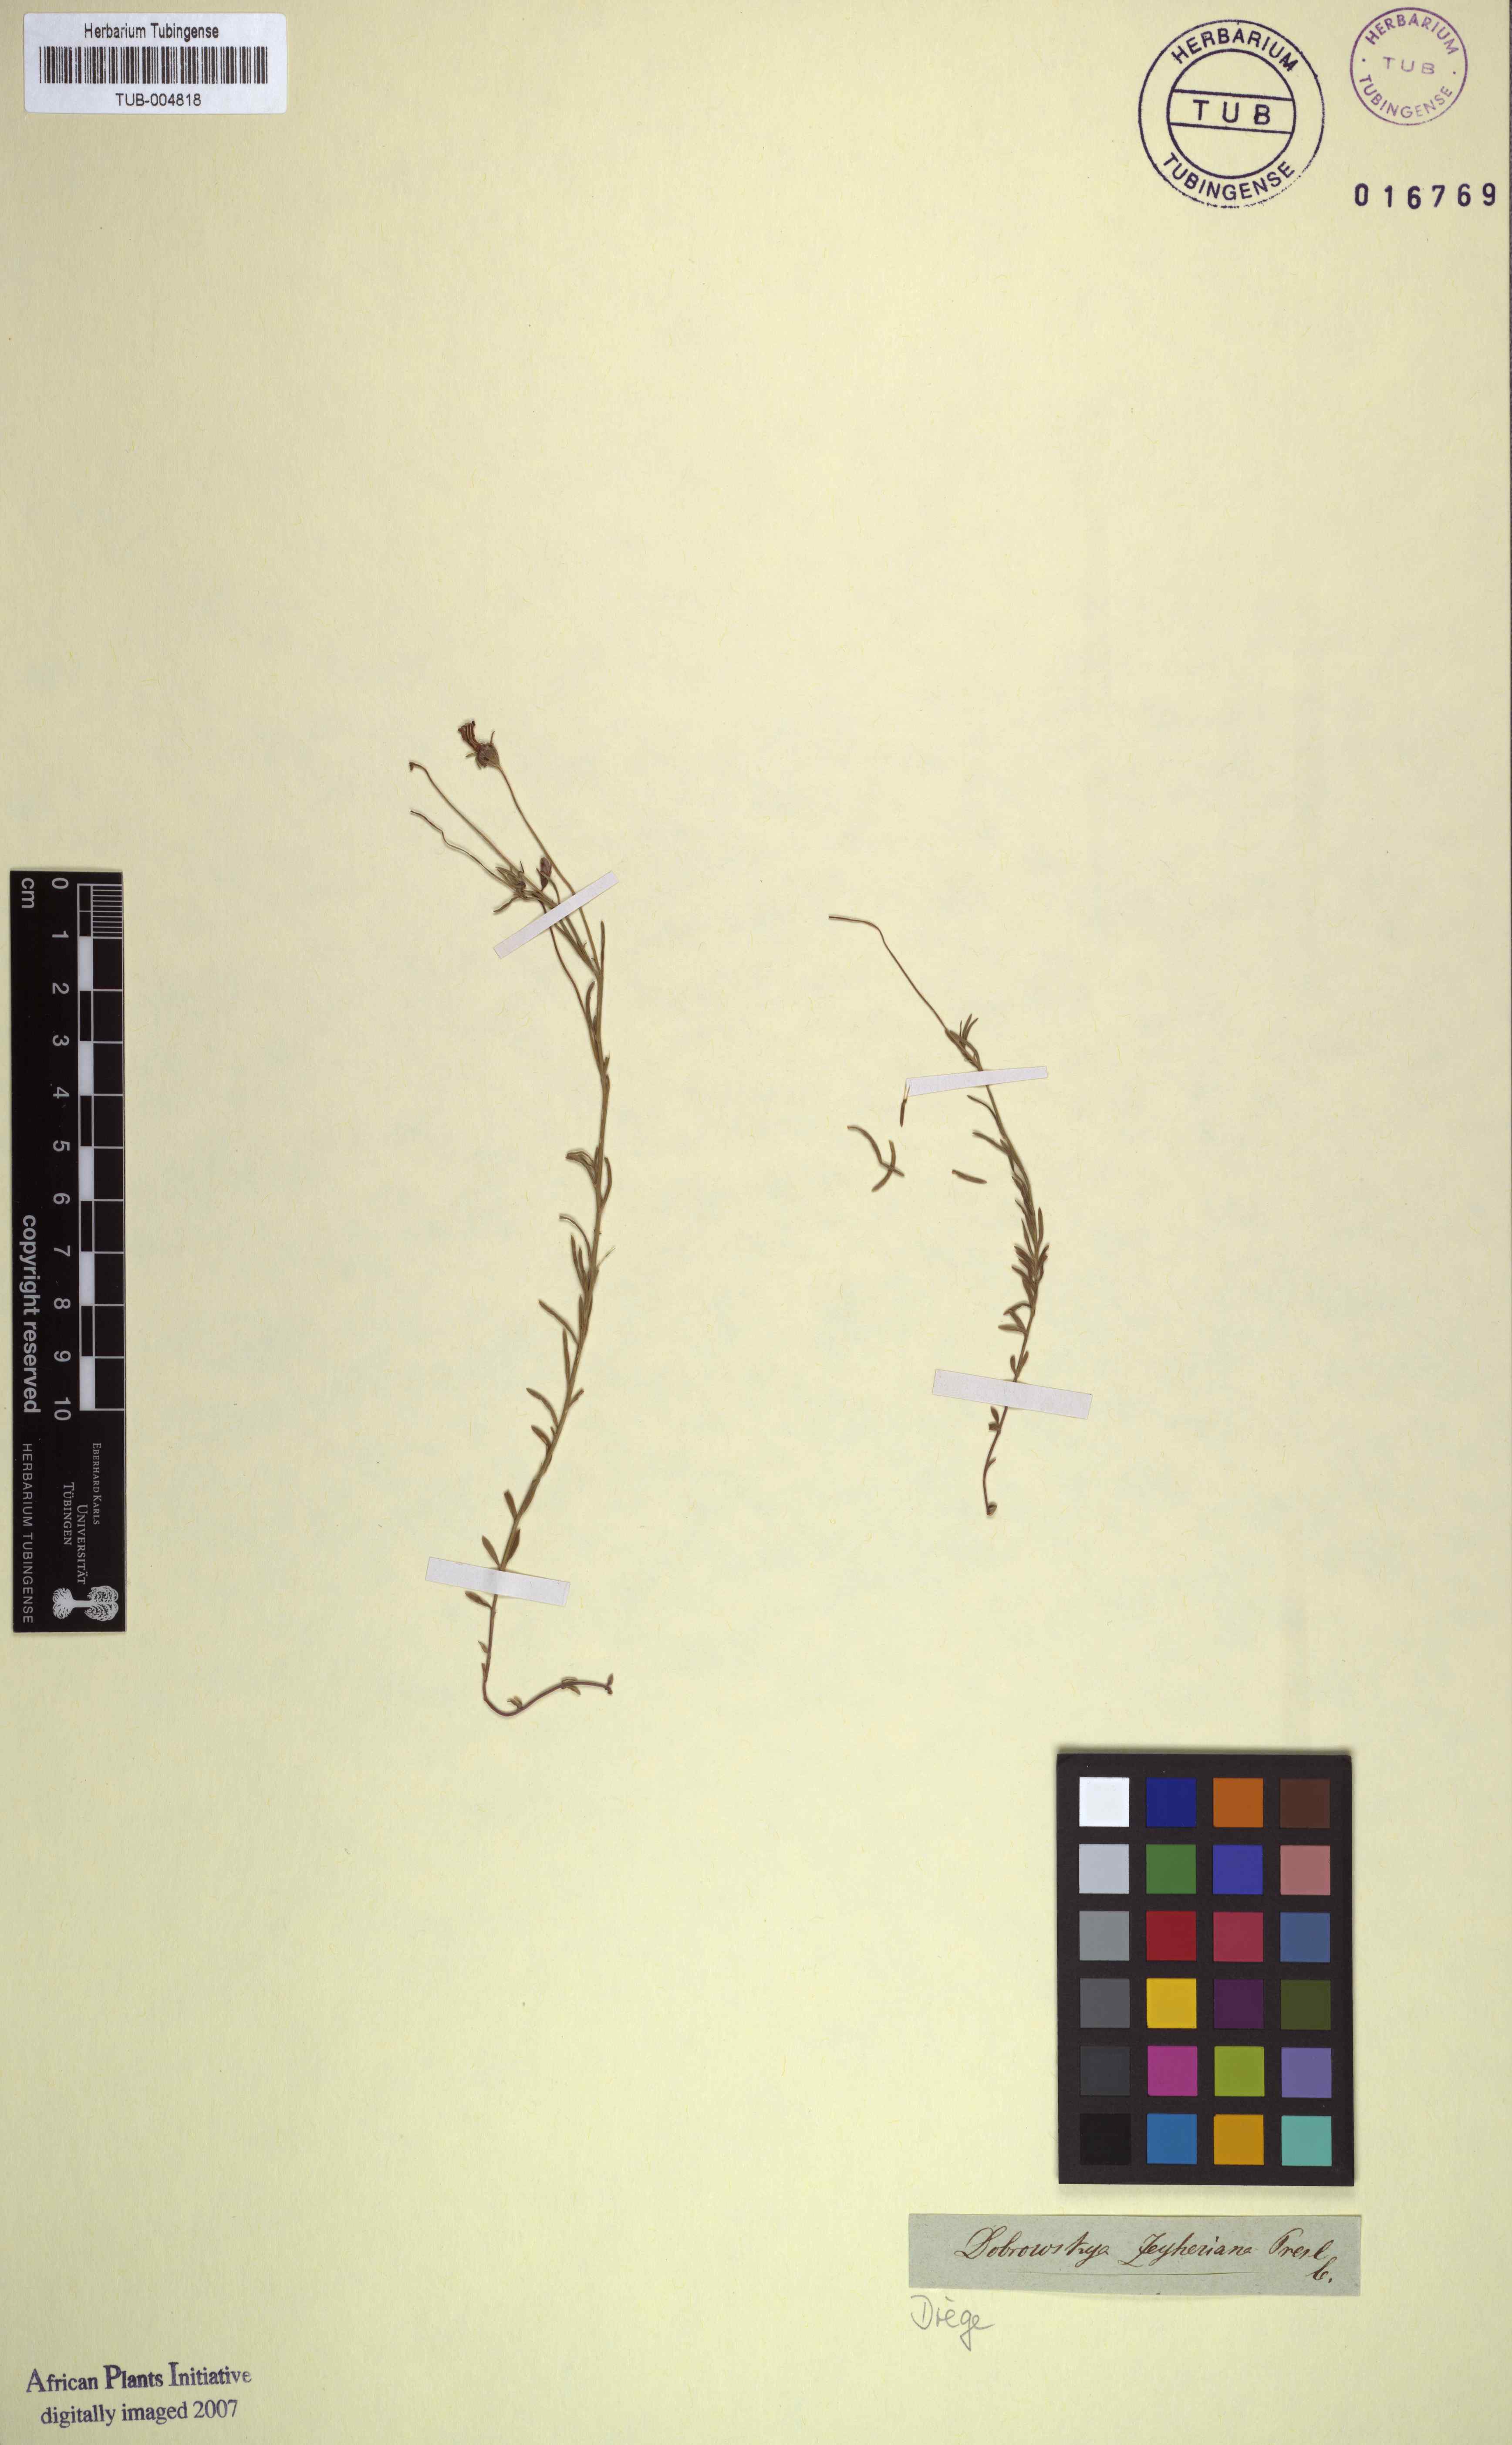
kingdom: Plantae
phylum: Tracheophyta
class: Magnoliopsida
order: Asterales
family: Campanulaceae
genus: Monopsis
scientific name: Monopsis scabra
